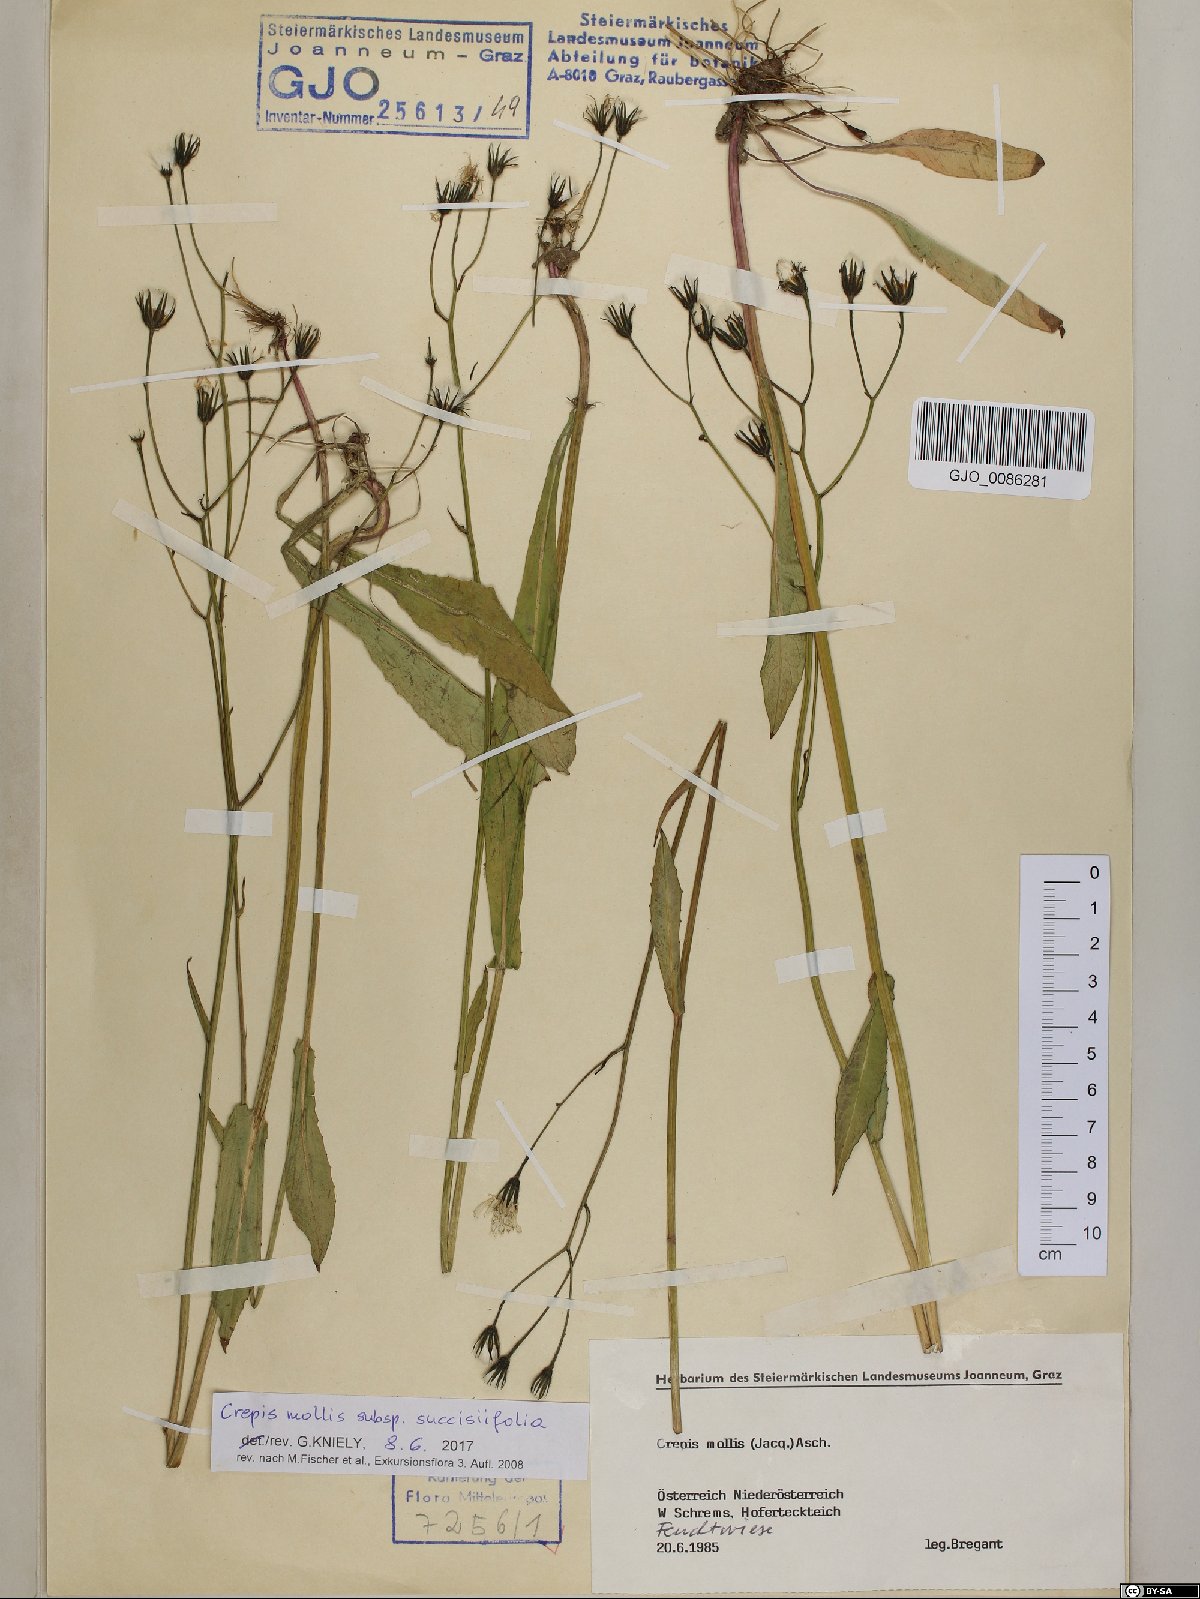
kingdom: Plantae
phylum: Tracheophyta
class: Magnoliopsida
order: Asterales
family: Asteraceae
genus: Crepis
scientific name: Crepis mollis
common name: Northern hawk's-beard
